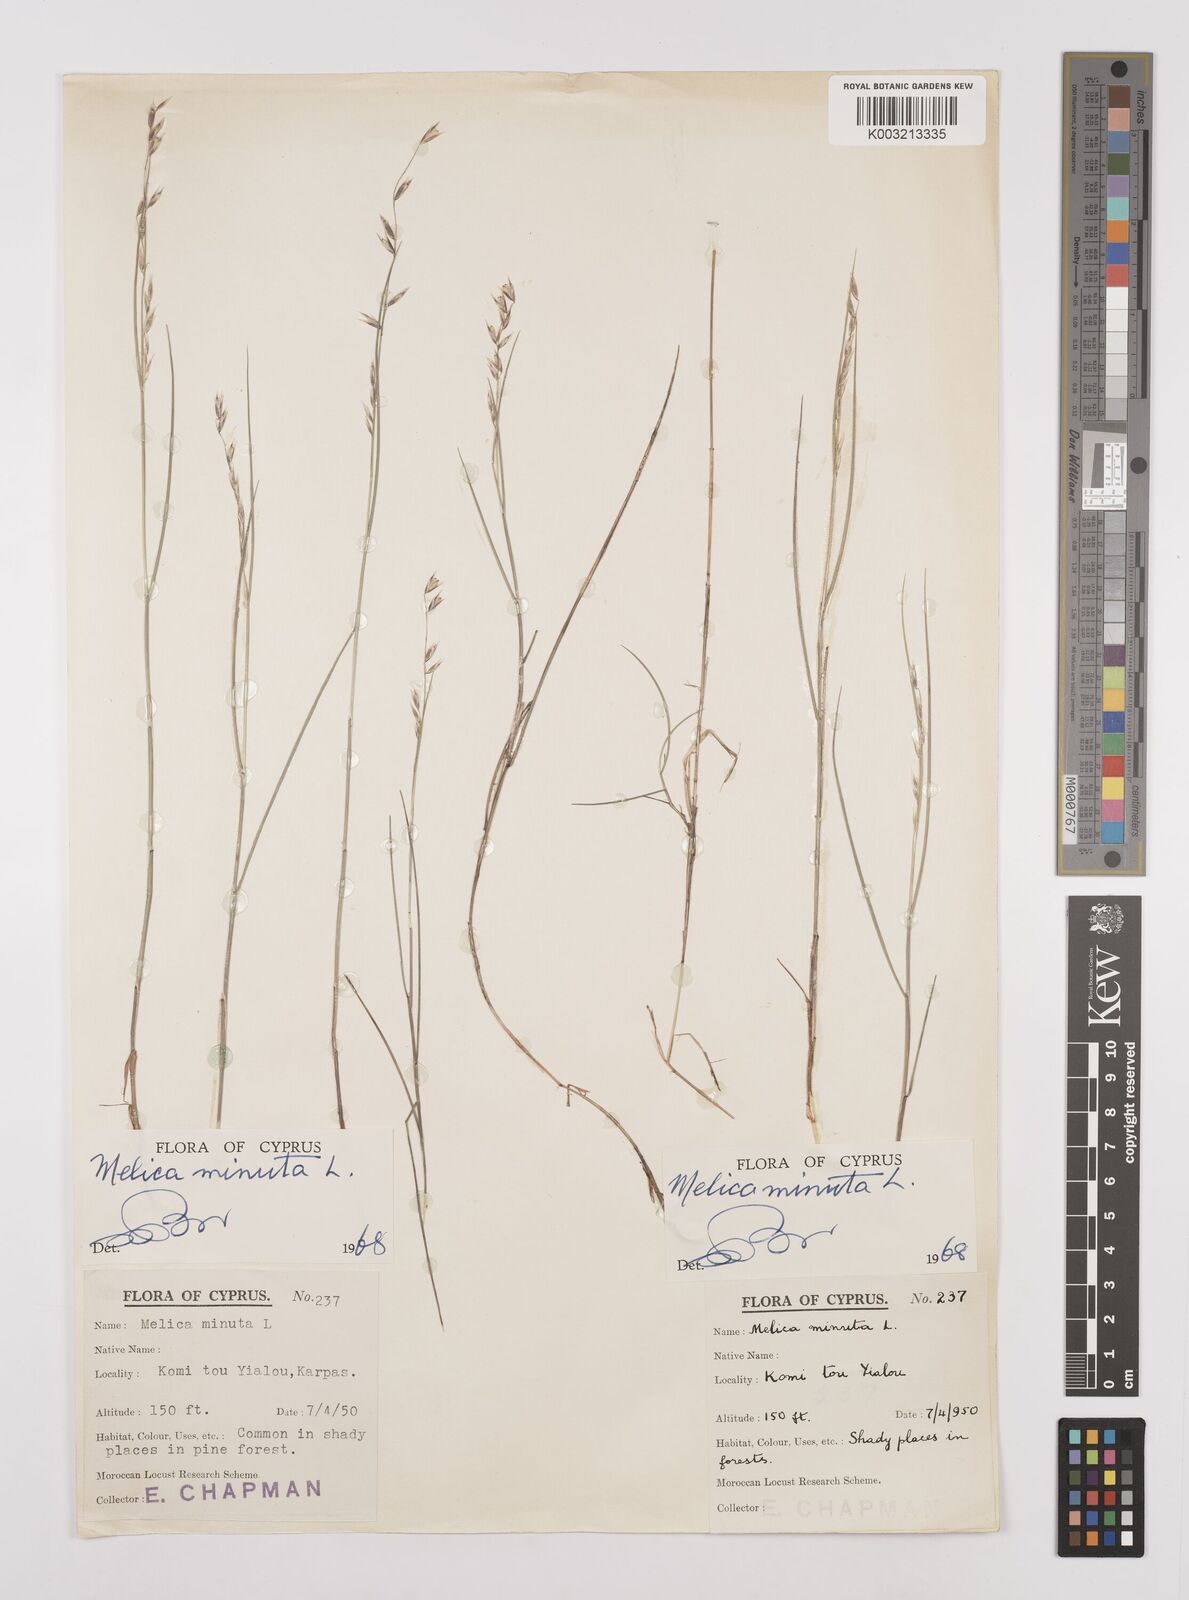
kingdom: Plantae
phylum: Tracheophyta
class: Liliopsida
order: Poales
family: Poaceae
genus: Melica
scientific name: Melica minuta
